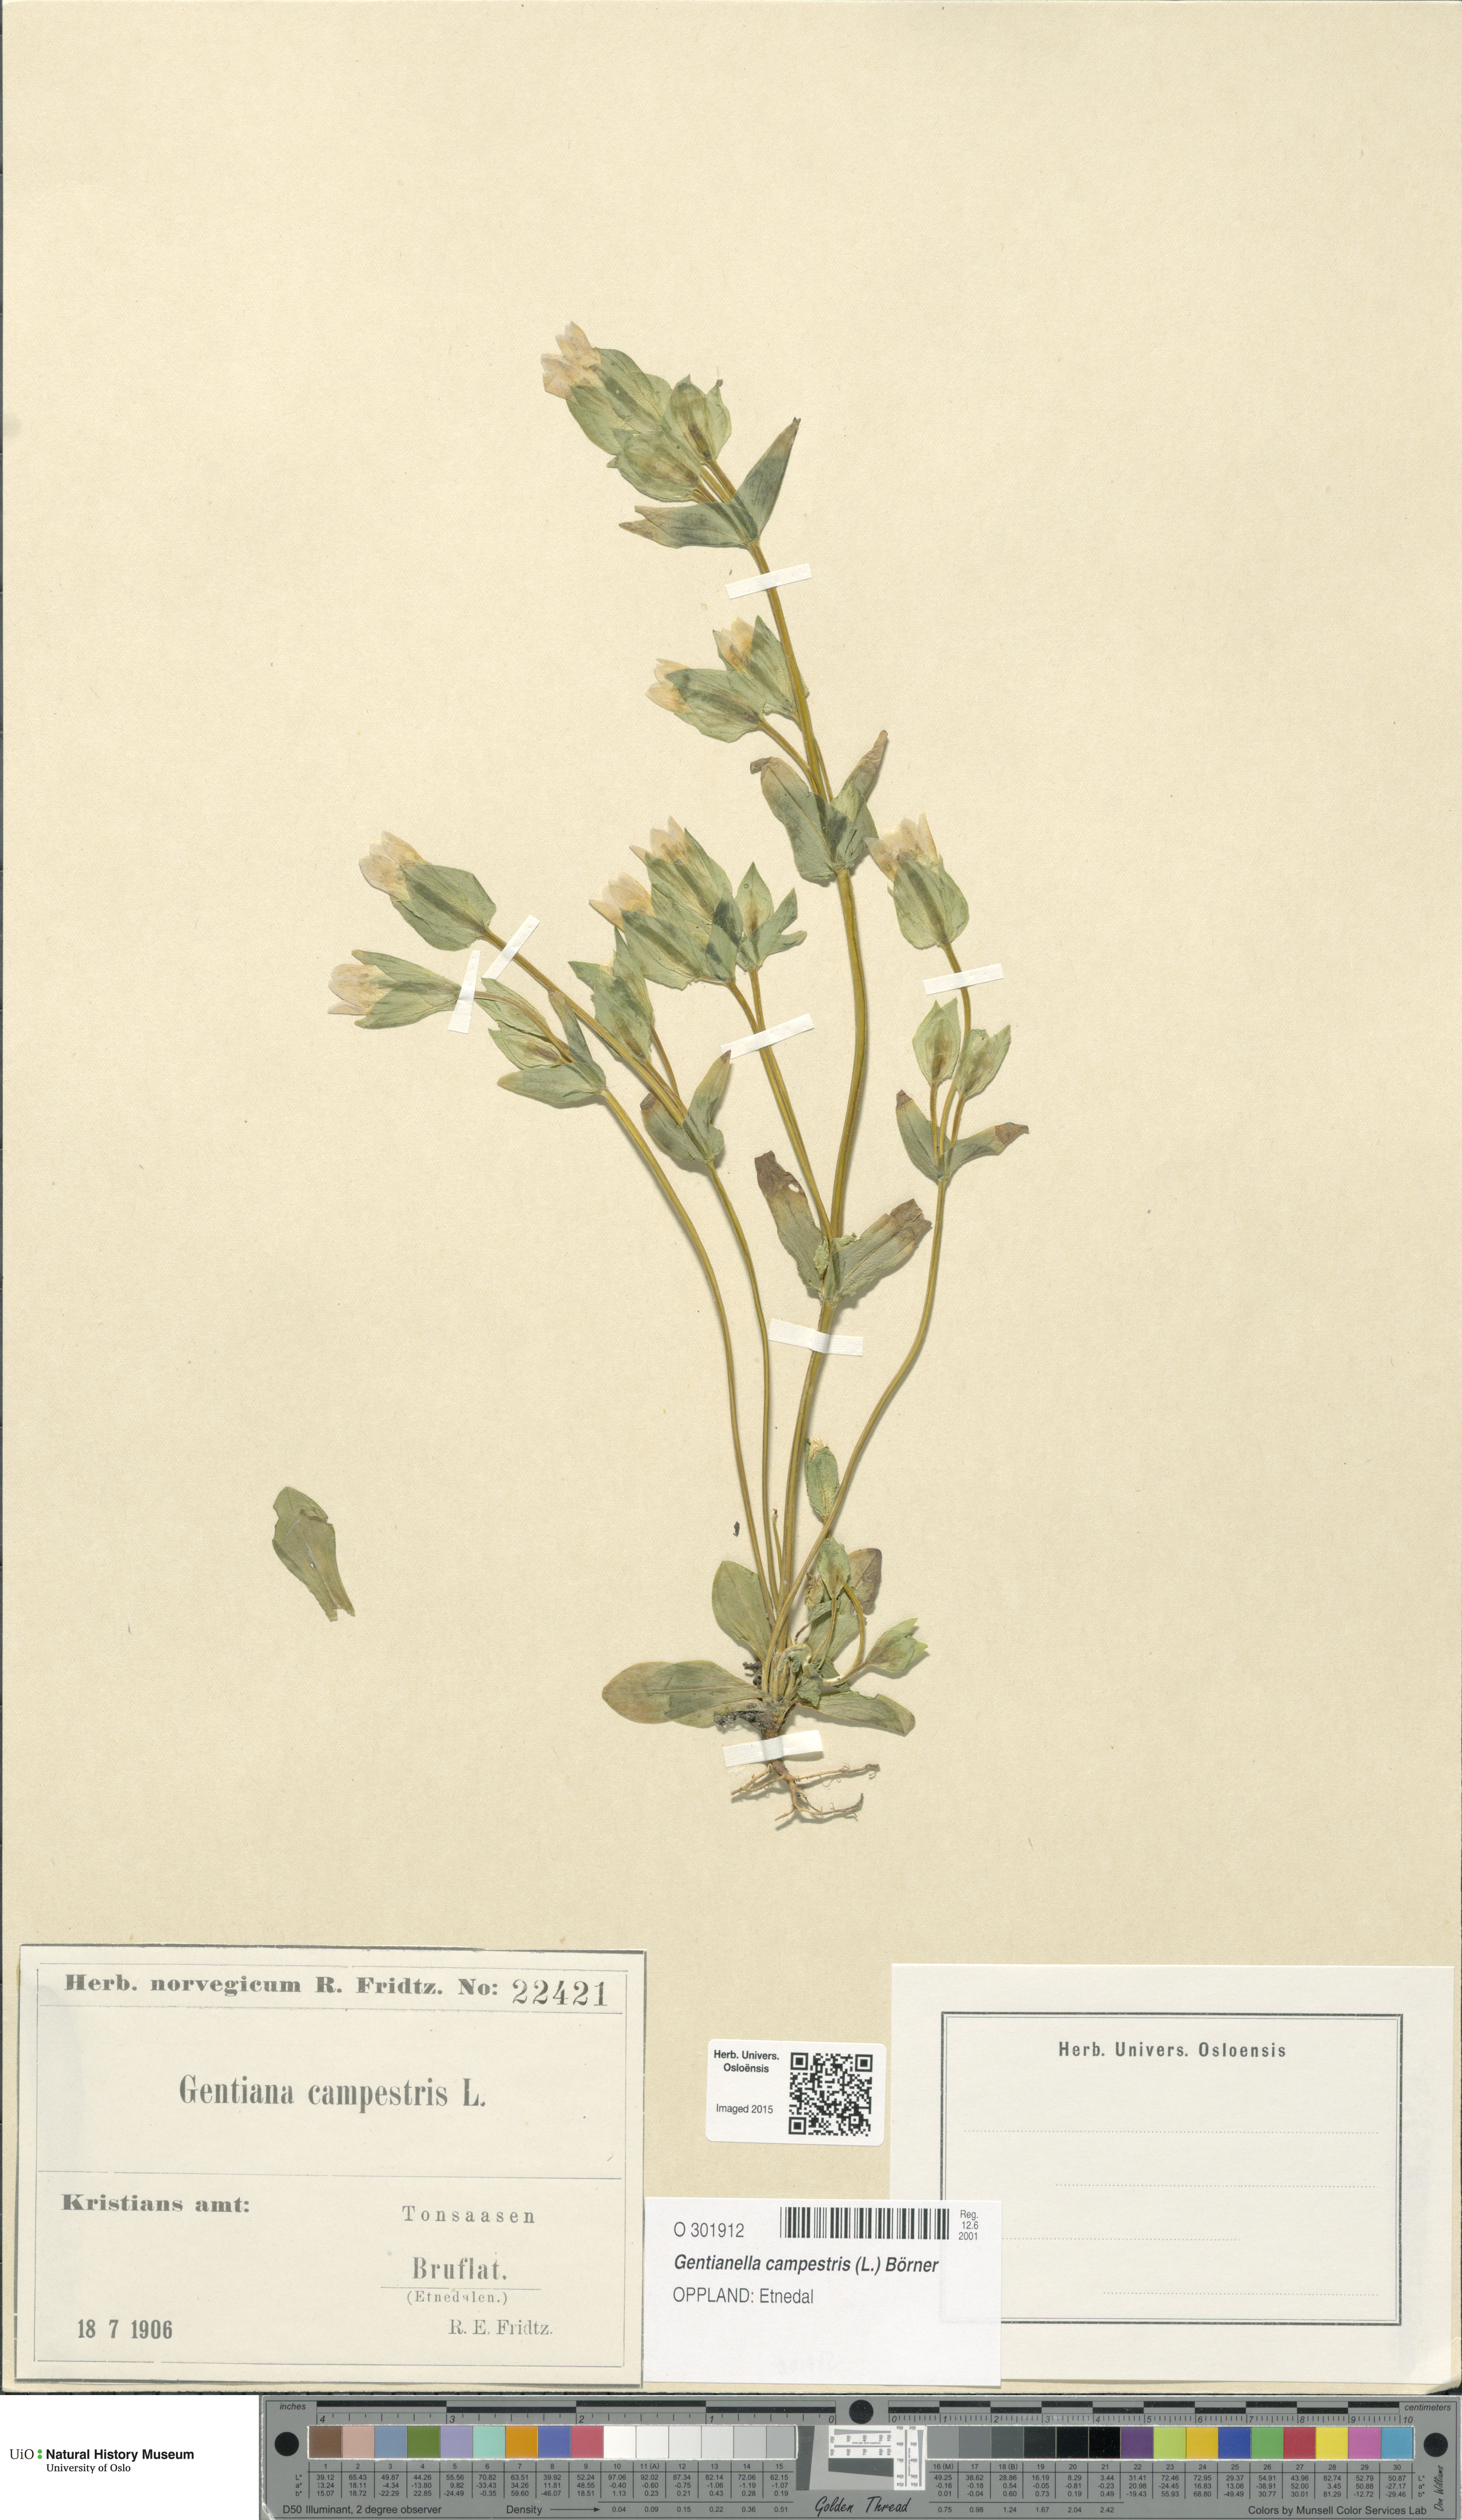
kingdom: Plantae
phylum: Tracheophyta
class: Magnoliopsida
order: Gentianales
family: Gentianaceae
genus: Gentianella
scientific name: Gentianella campestris
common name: Field gentian
